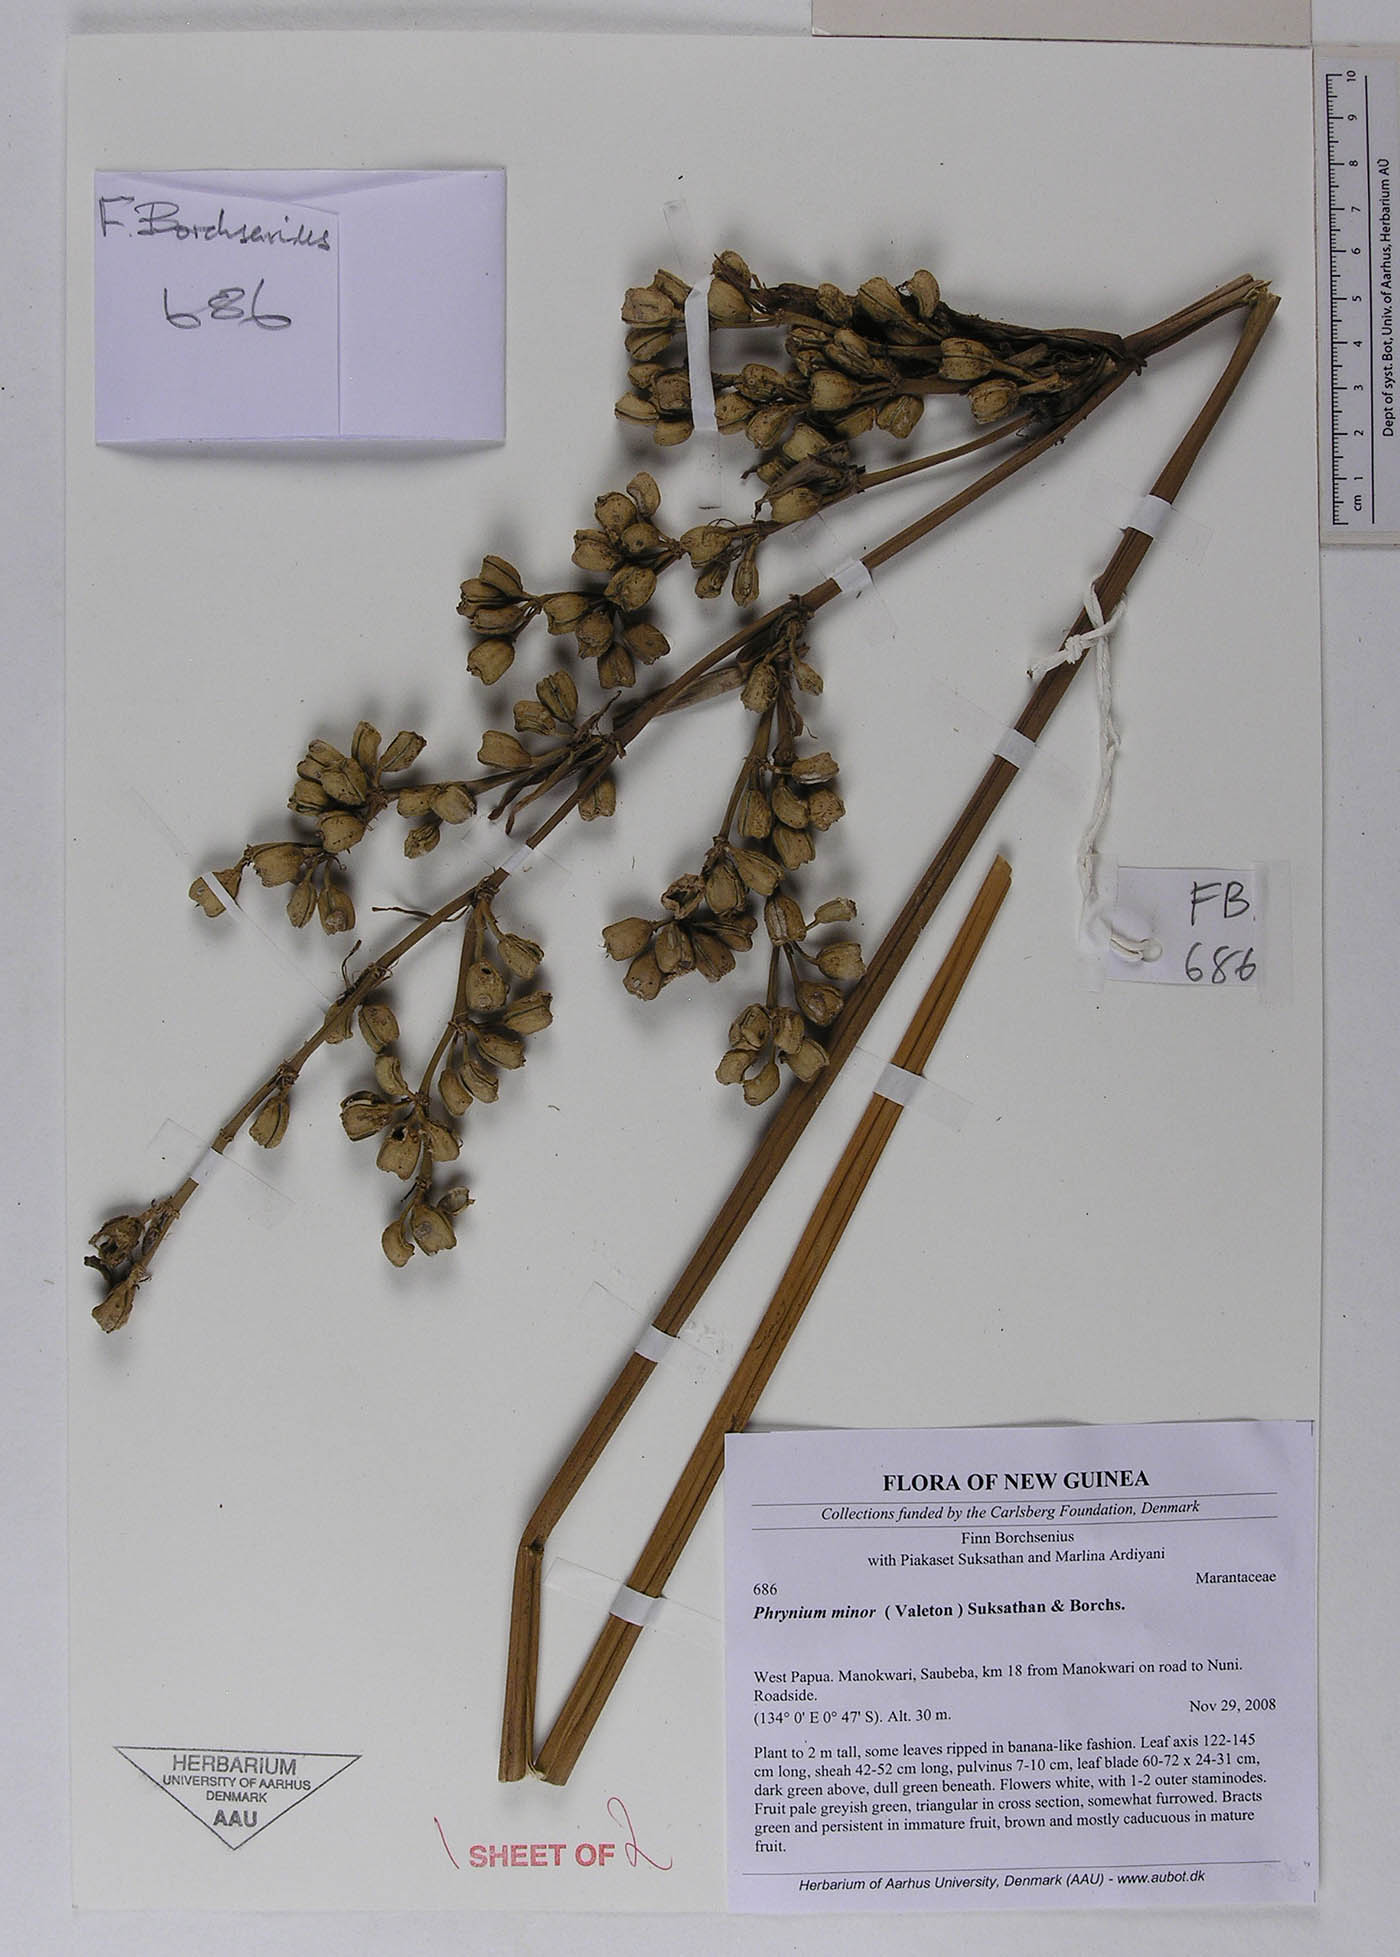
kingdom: Plantae
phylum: Tracheophyta
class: Liliopsida
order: Zingiberales
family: Marantaceae
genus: Phrynium
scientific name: Phrynium minor
